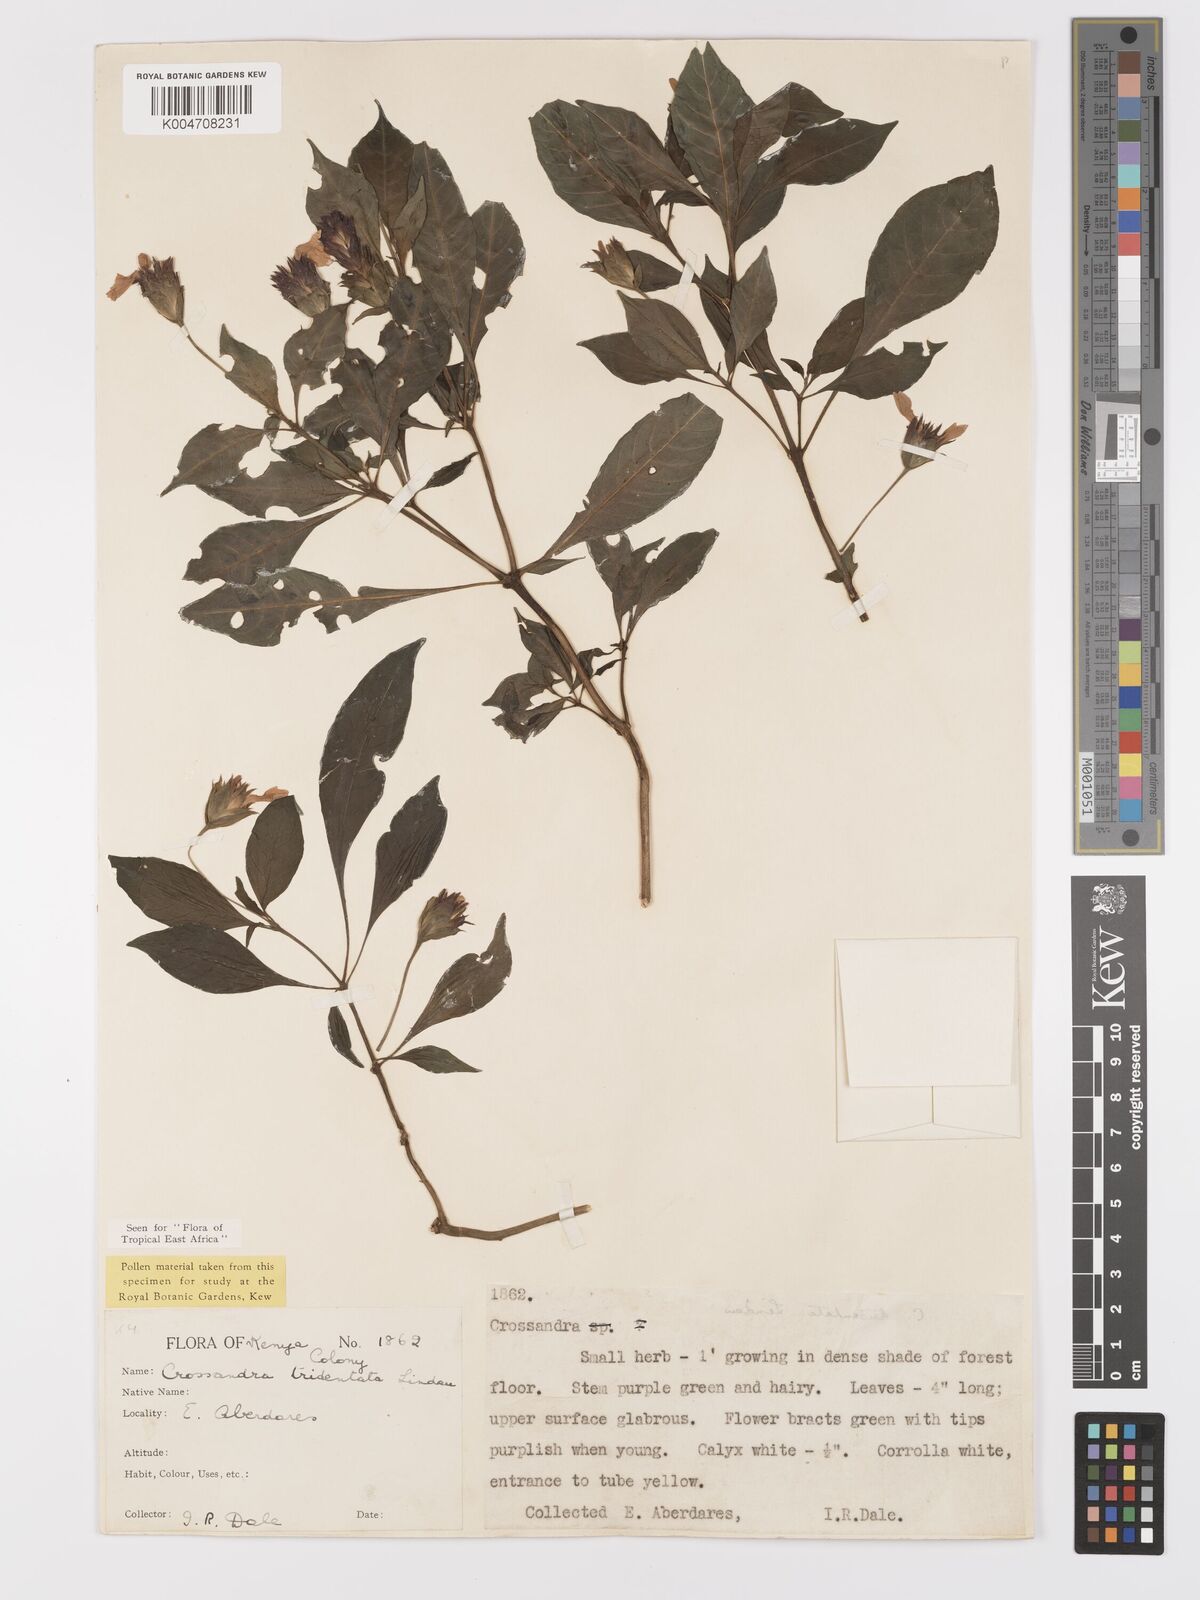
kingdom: Plantae
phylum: Tracheophyta
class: Magnoliopsida
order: Lamiales
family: Acanthaceae
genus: Crossandra
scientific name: Crossandra tridentata
